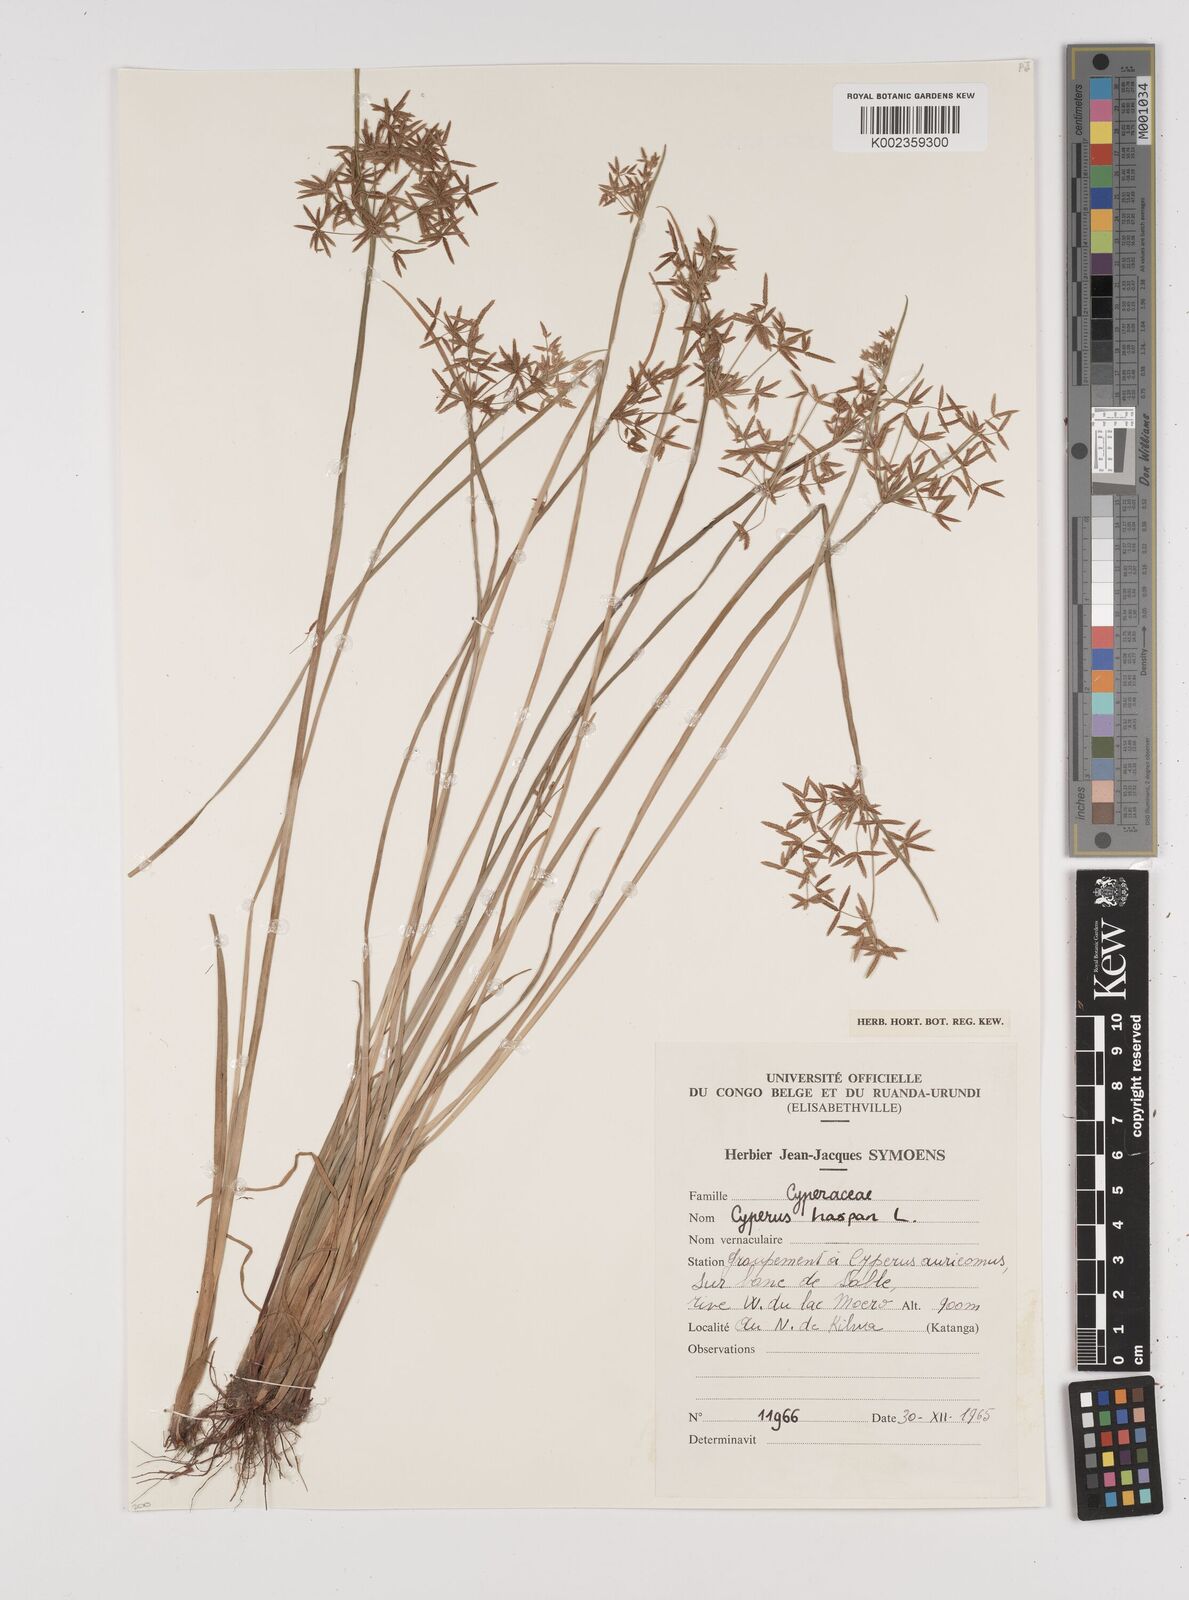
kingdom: Plantae
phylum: Tracheophyta
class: Liliopsida
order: Poales
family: Cyperaceae
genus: Cyperus
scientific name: Cyperus haspan
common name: Haspan flatsedge
